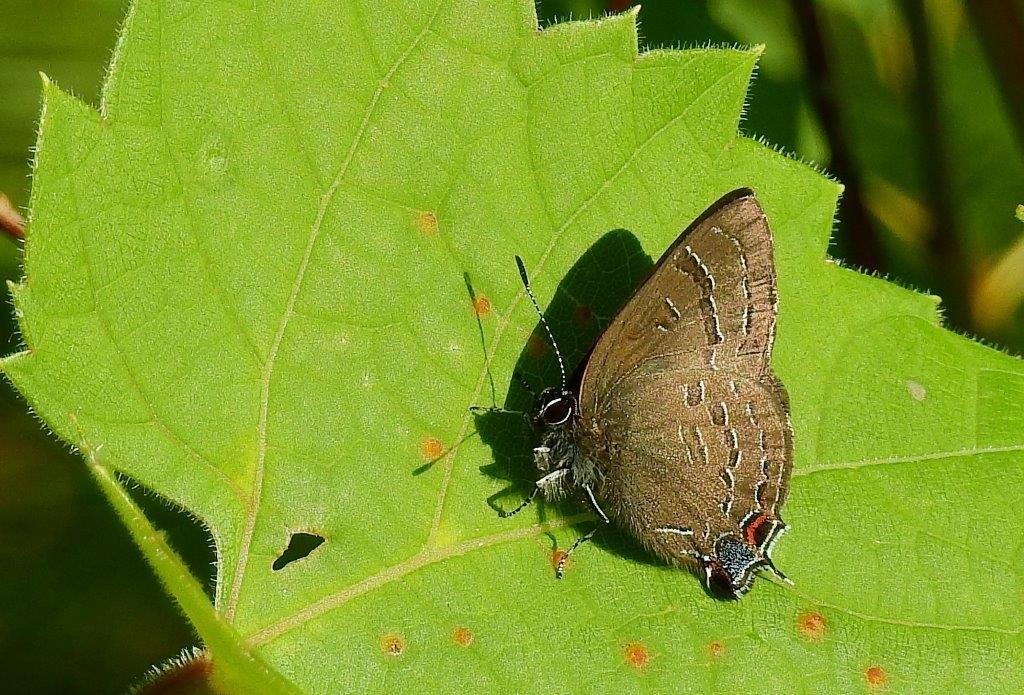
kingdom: Animalia
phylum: Arthropoda
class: Insecta
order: Lepidoptera
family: Lycaenidae
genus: Satyrium
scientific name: Satyrium calanus
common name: Banded Hairstreak
